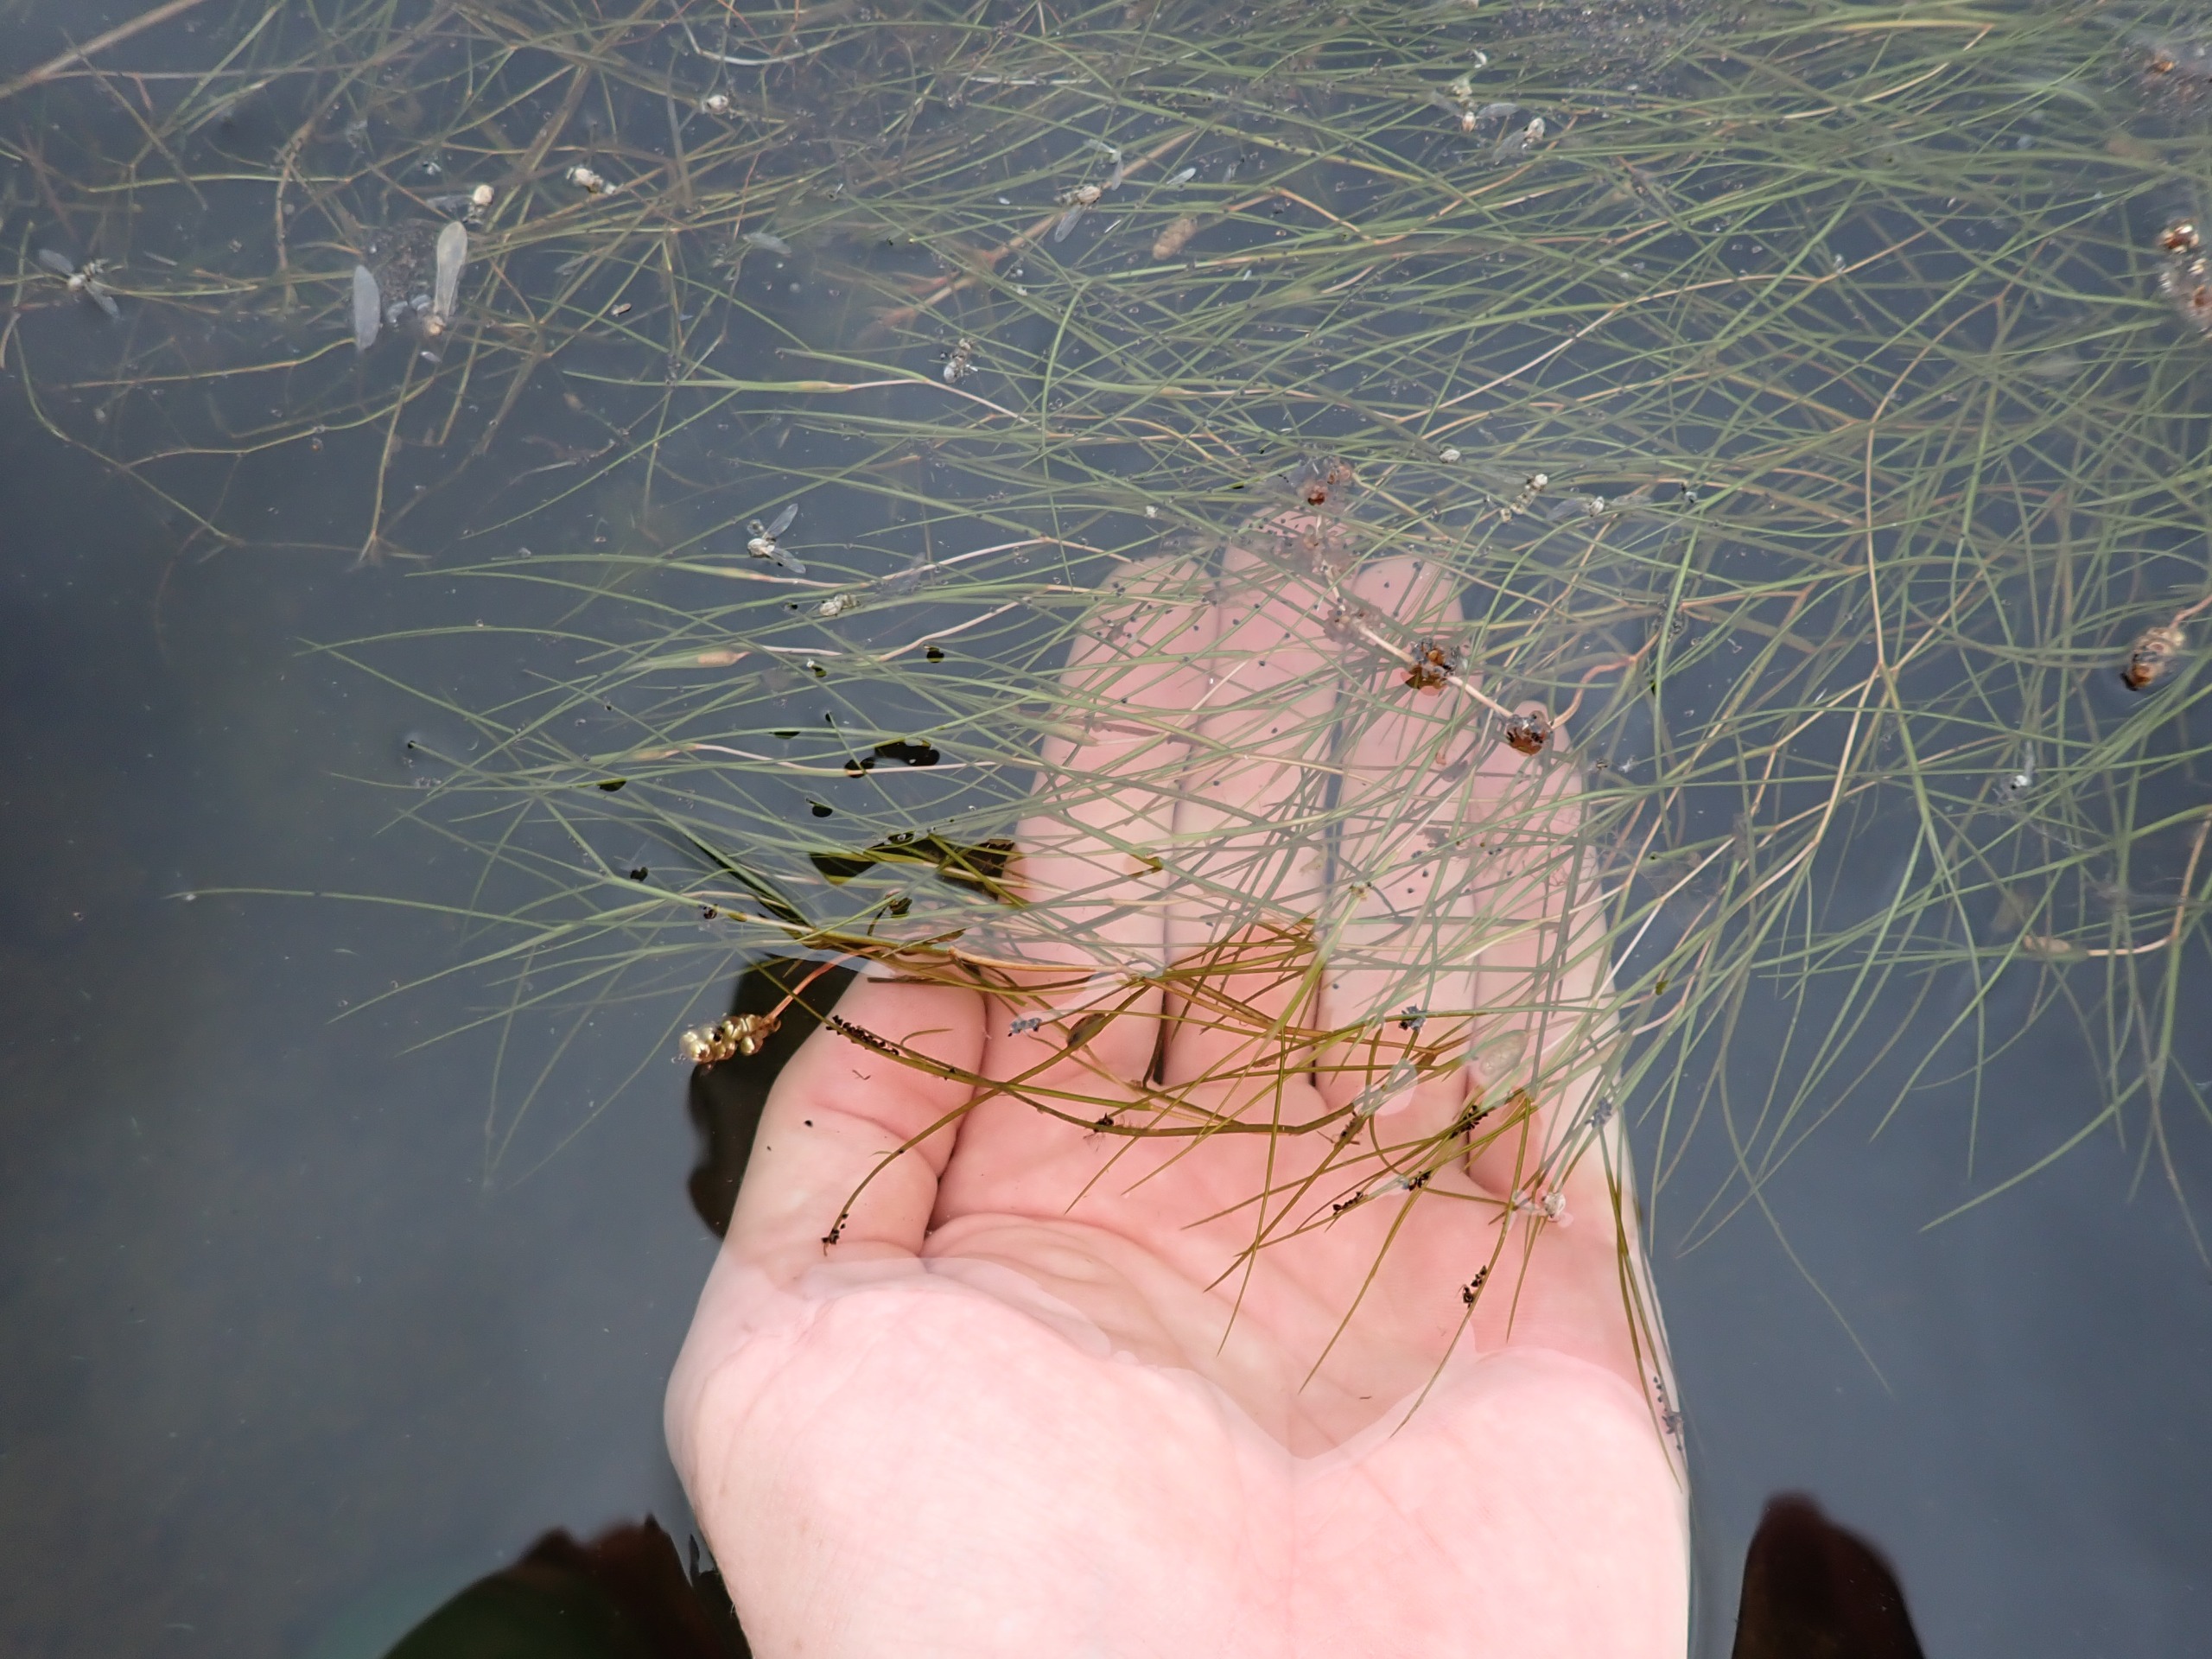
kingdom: Plantae
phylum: Tracheophyta
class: Liliopsida
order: Alismatales
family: Potamogetonaceae
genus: Stuckenia
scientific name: Stuckenia pectinata
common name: Børstebladet vandaks
